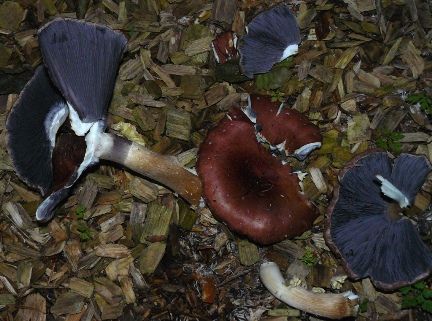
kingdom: Fungi
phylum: Basidiomycota
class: Agaricomycetes
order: Agaricales
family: Strophariaceae
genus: Stropharia
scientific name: Stropharia rugosoannulata
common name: rødbrun bredblad
